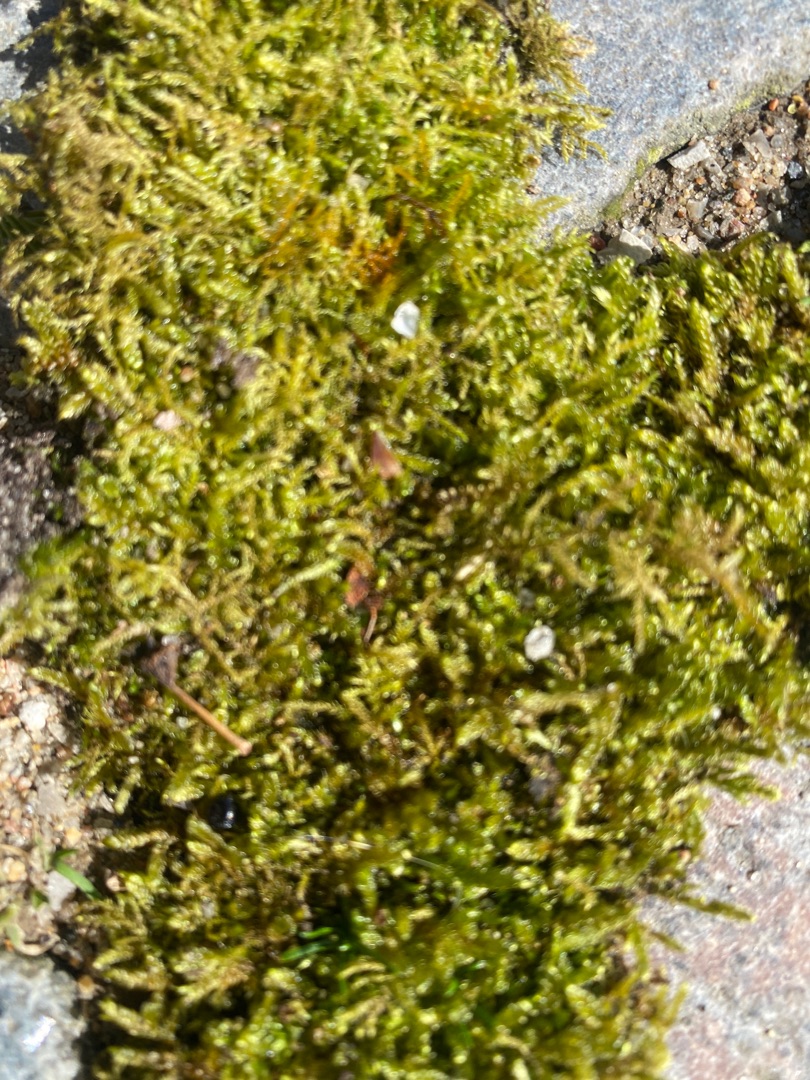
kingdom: Plantae
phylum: Bryophyta
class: Bryopsida
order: Hypnales
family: Hypnaceae
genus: Hypnum
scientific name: Hypnum cupressiforme
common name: Almindelig cypresmos
